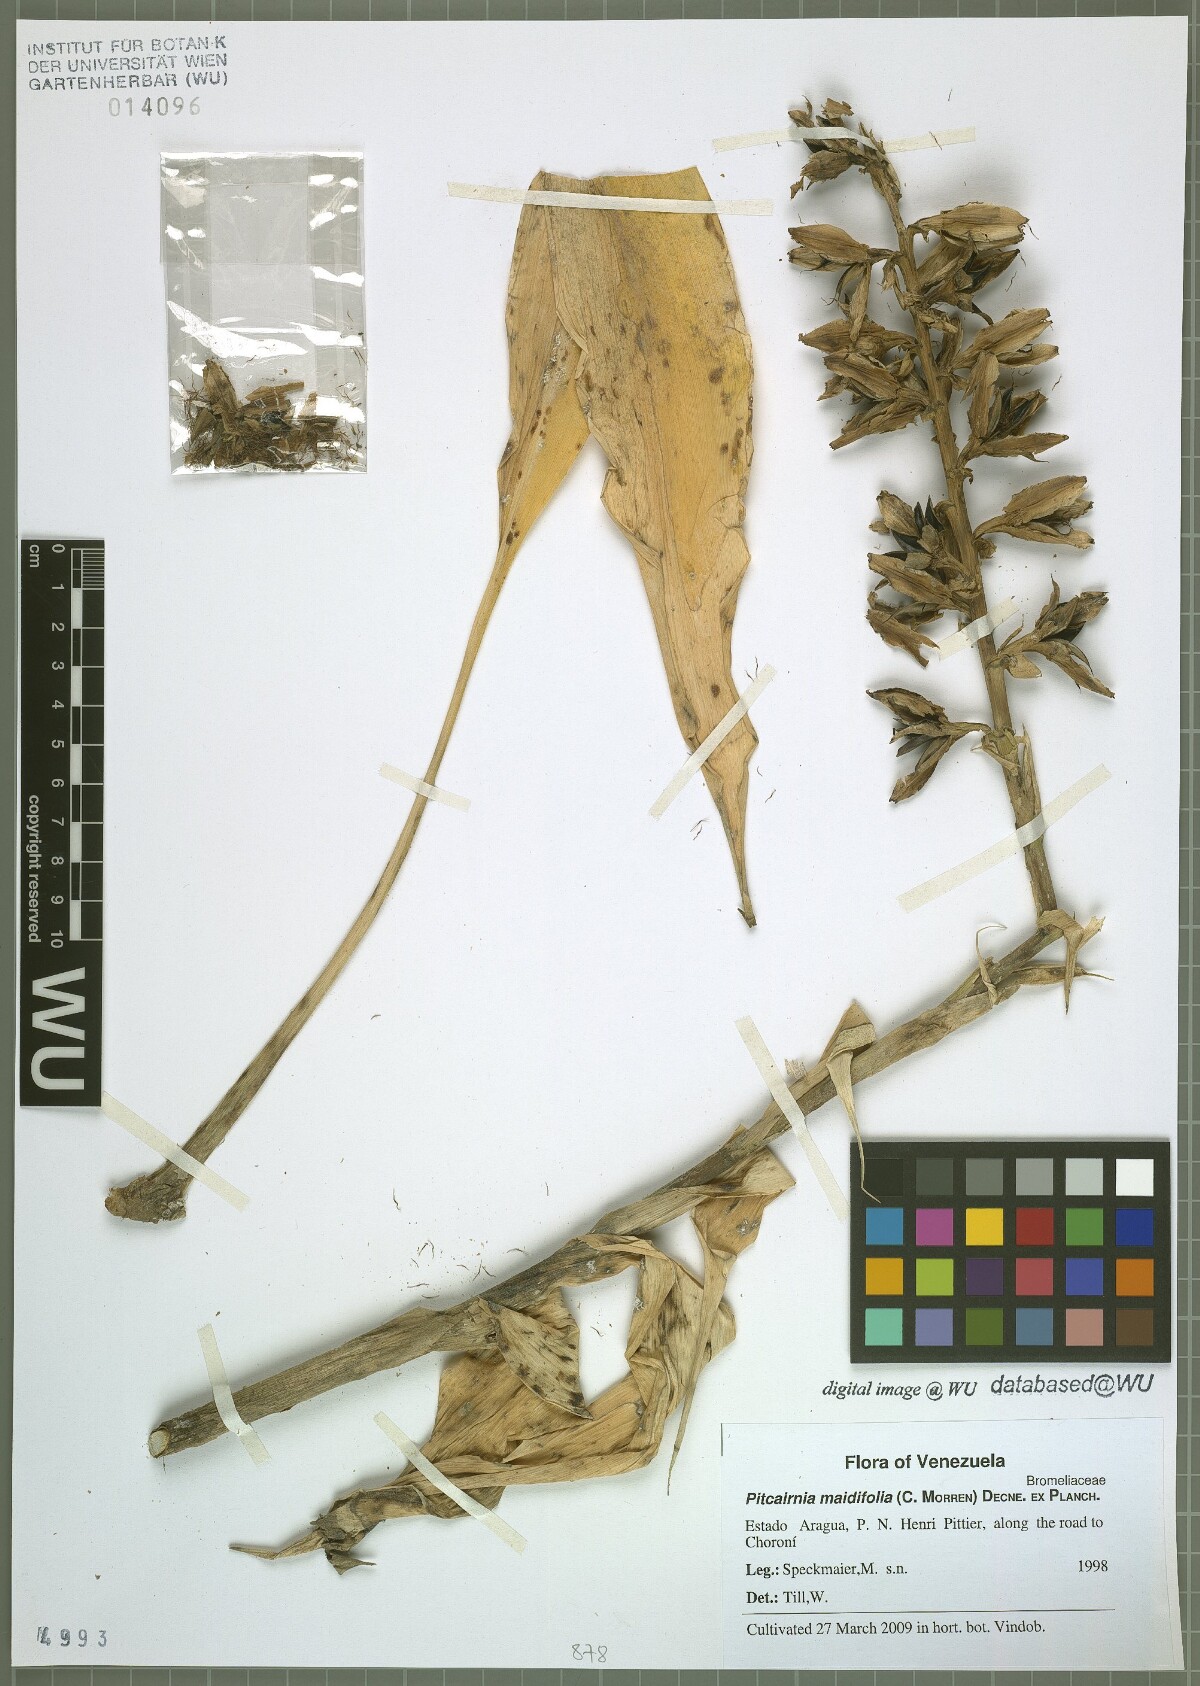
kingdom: Plantae
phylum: Tracheophyta
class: Liliopsida
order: Poales
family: Bromeliaceae
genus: Pitcairnia
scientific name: Pitcairnia maidifolia
